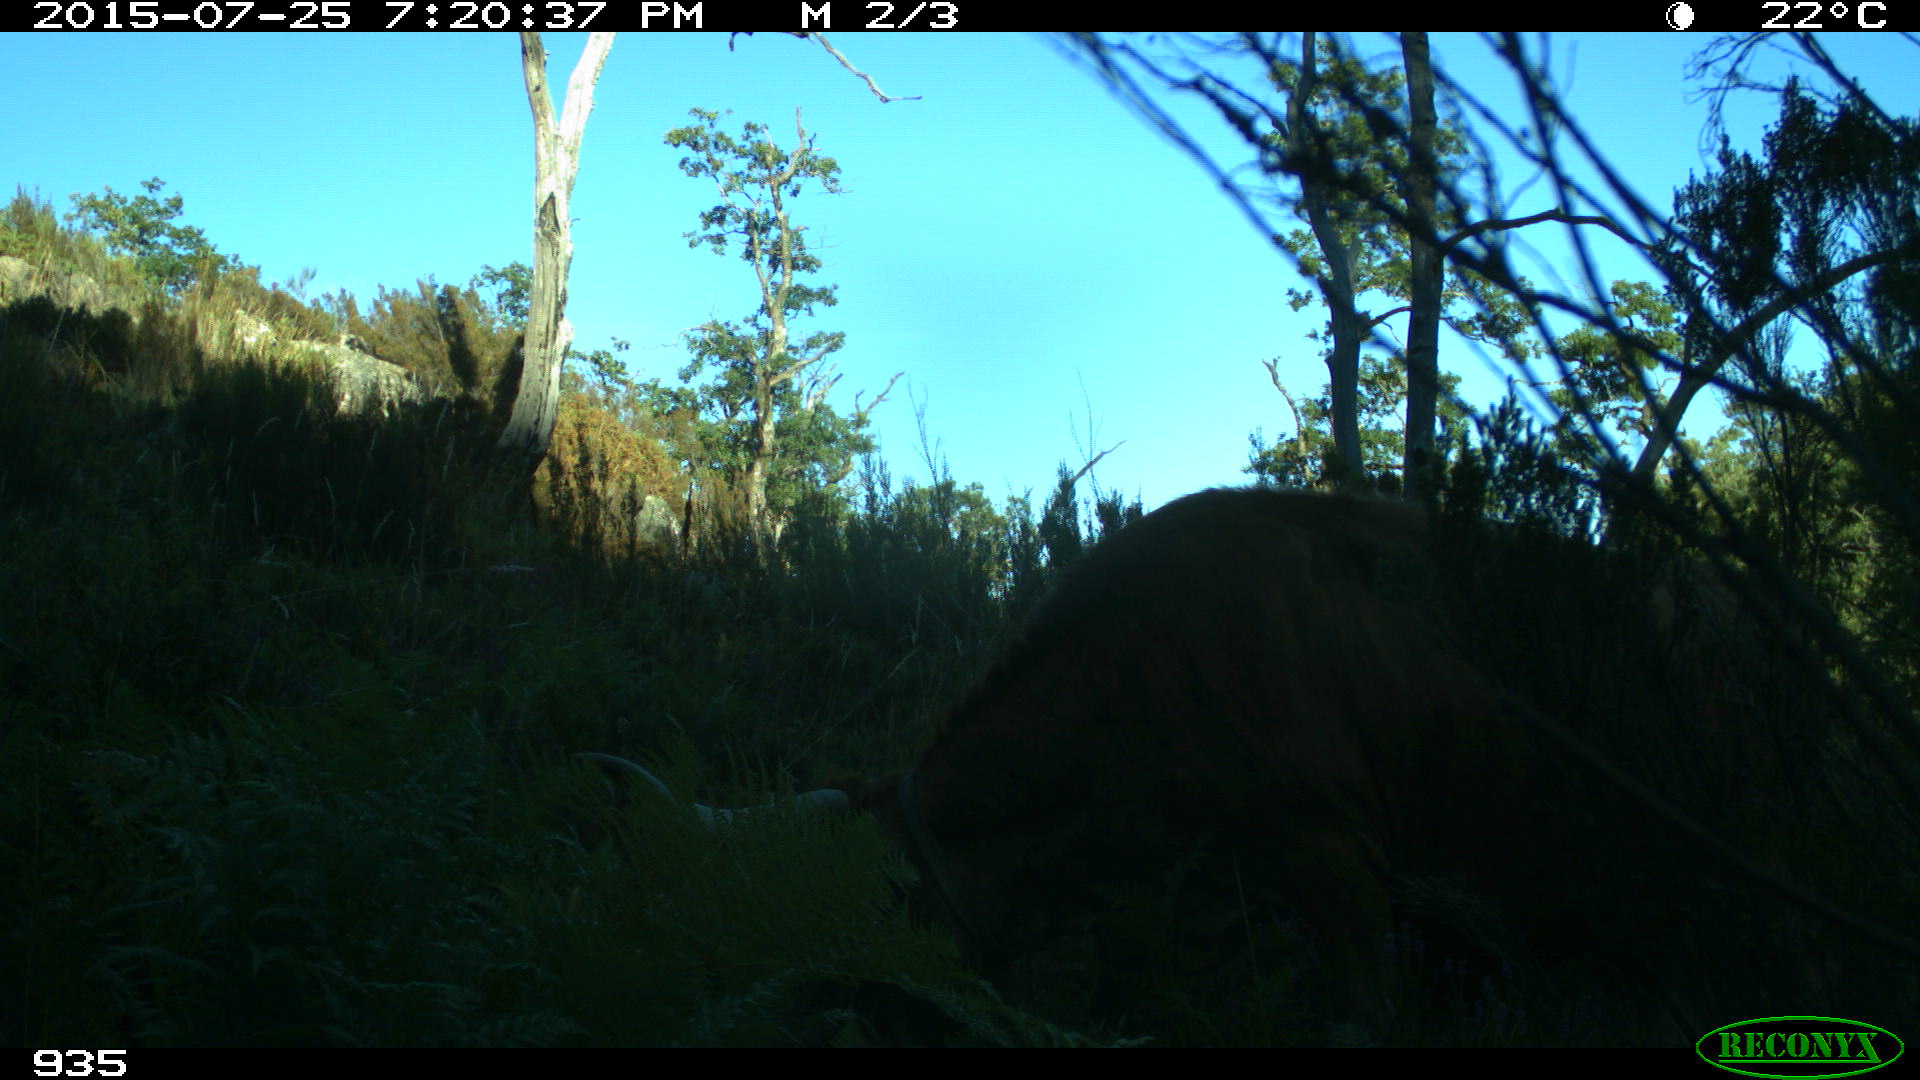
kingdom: Animalia
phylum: Chordata
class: Mammalia
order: Artiodactyla
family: Bovidae
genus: Bos
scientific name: Bos taurus
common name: Domesticated cattle
